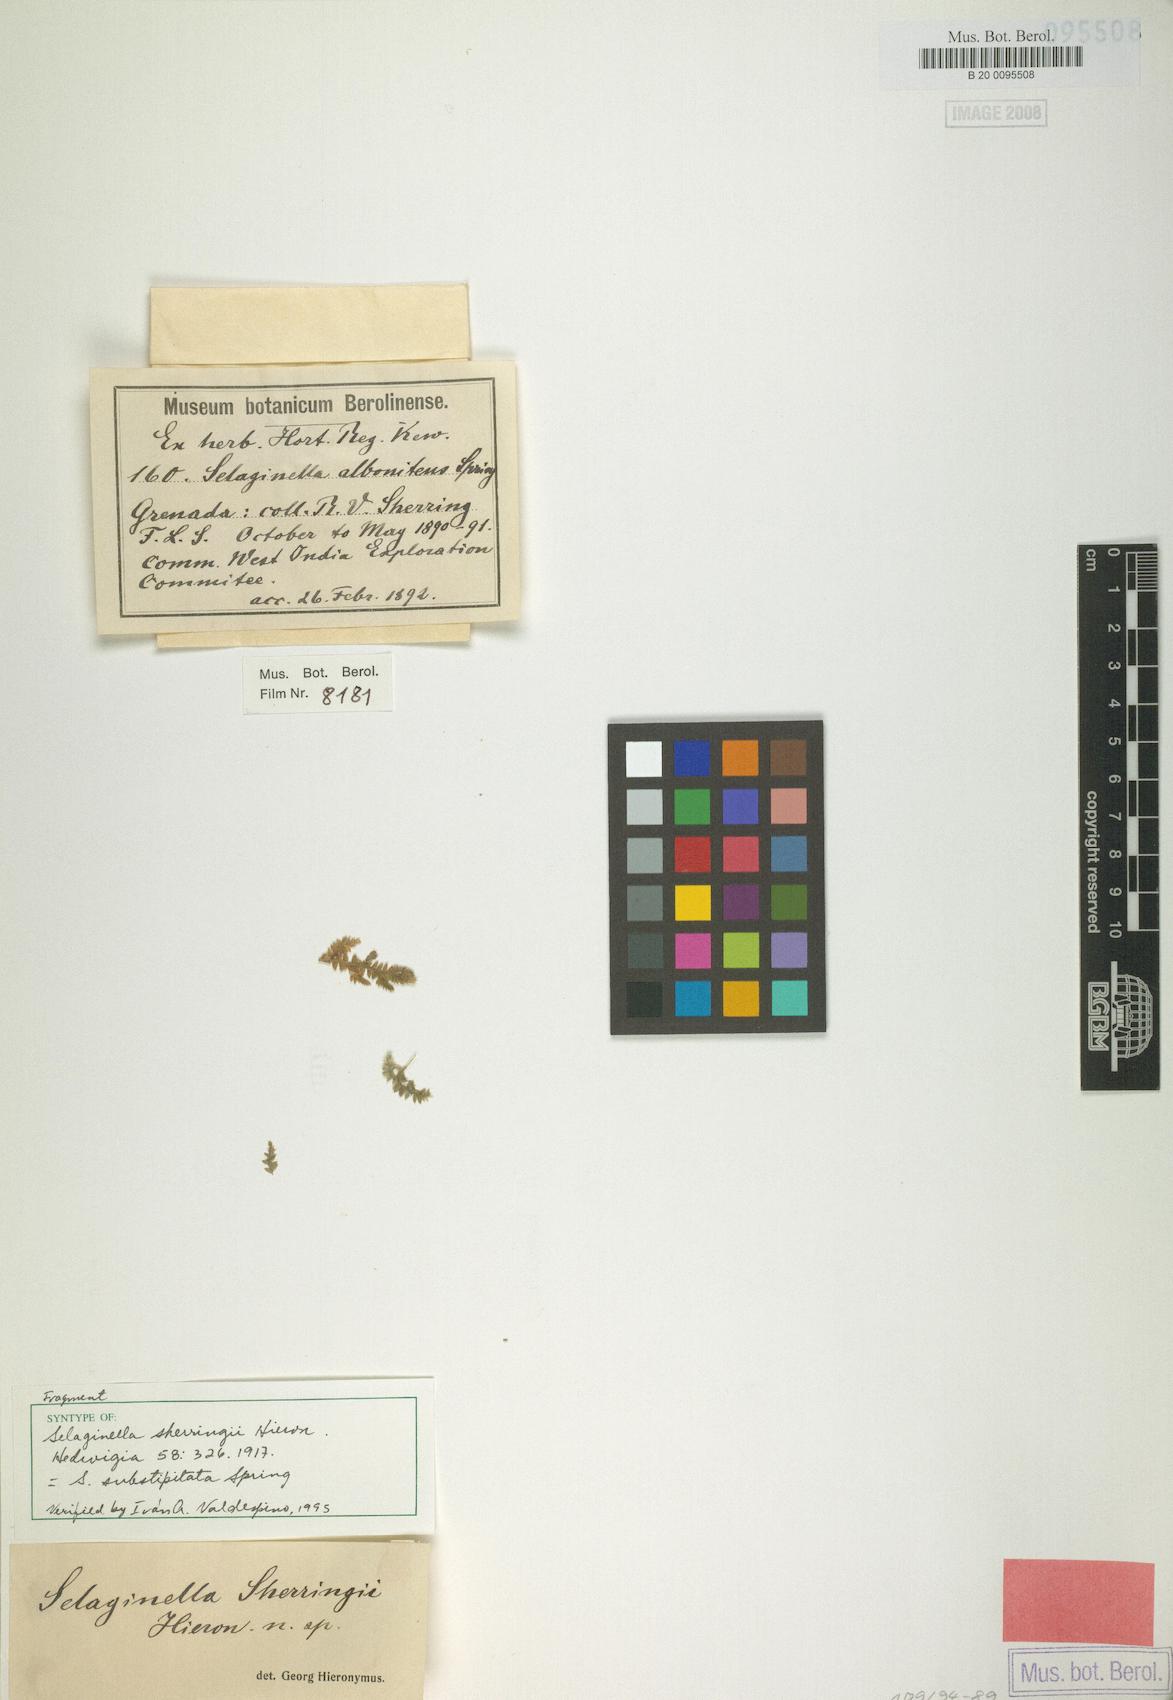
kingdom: Plantae
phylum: Tracheophyta
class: Lycopodiopsida
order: Selaginellales
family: Selaginellaceae
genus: Selaginella
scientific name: Selaginella substipitata
